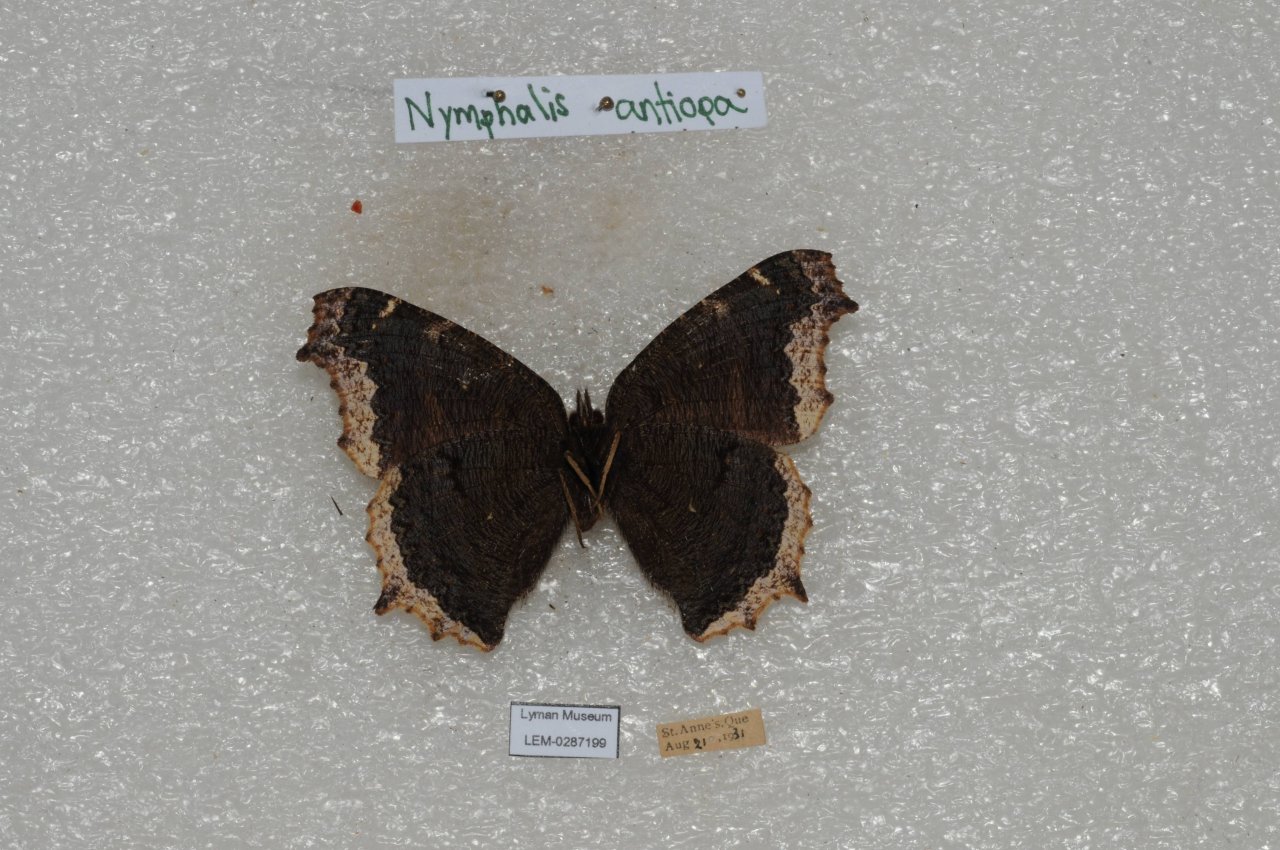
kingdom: Animalia
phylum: Arthropoda
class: Insecta
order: Lepidoptera
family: Nymphalidae
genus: Nymphalis
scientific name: Nymphalis antiopa
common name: Mourning Cloak
